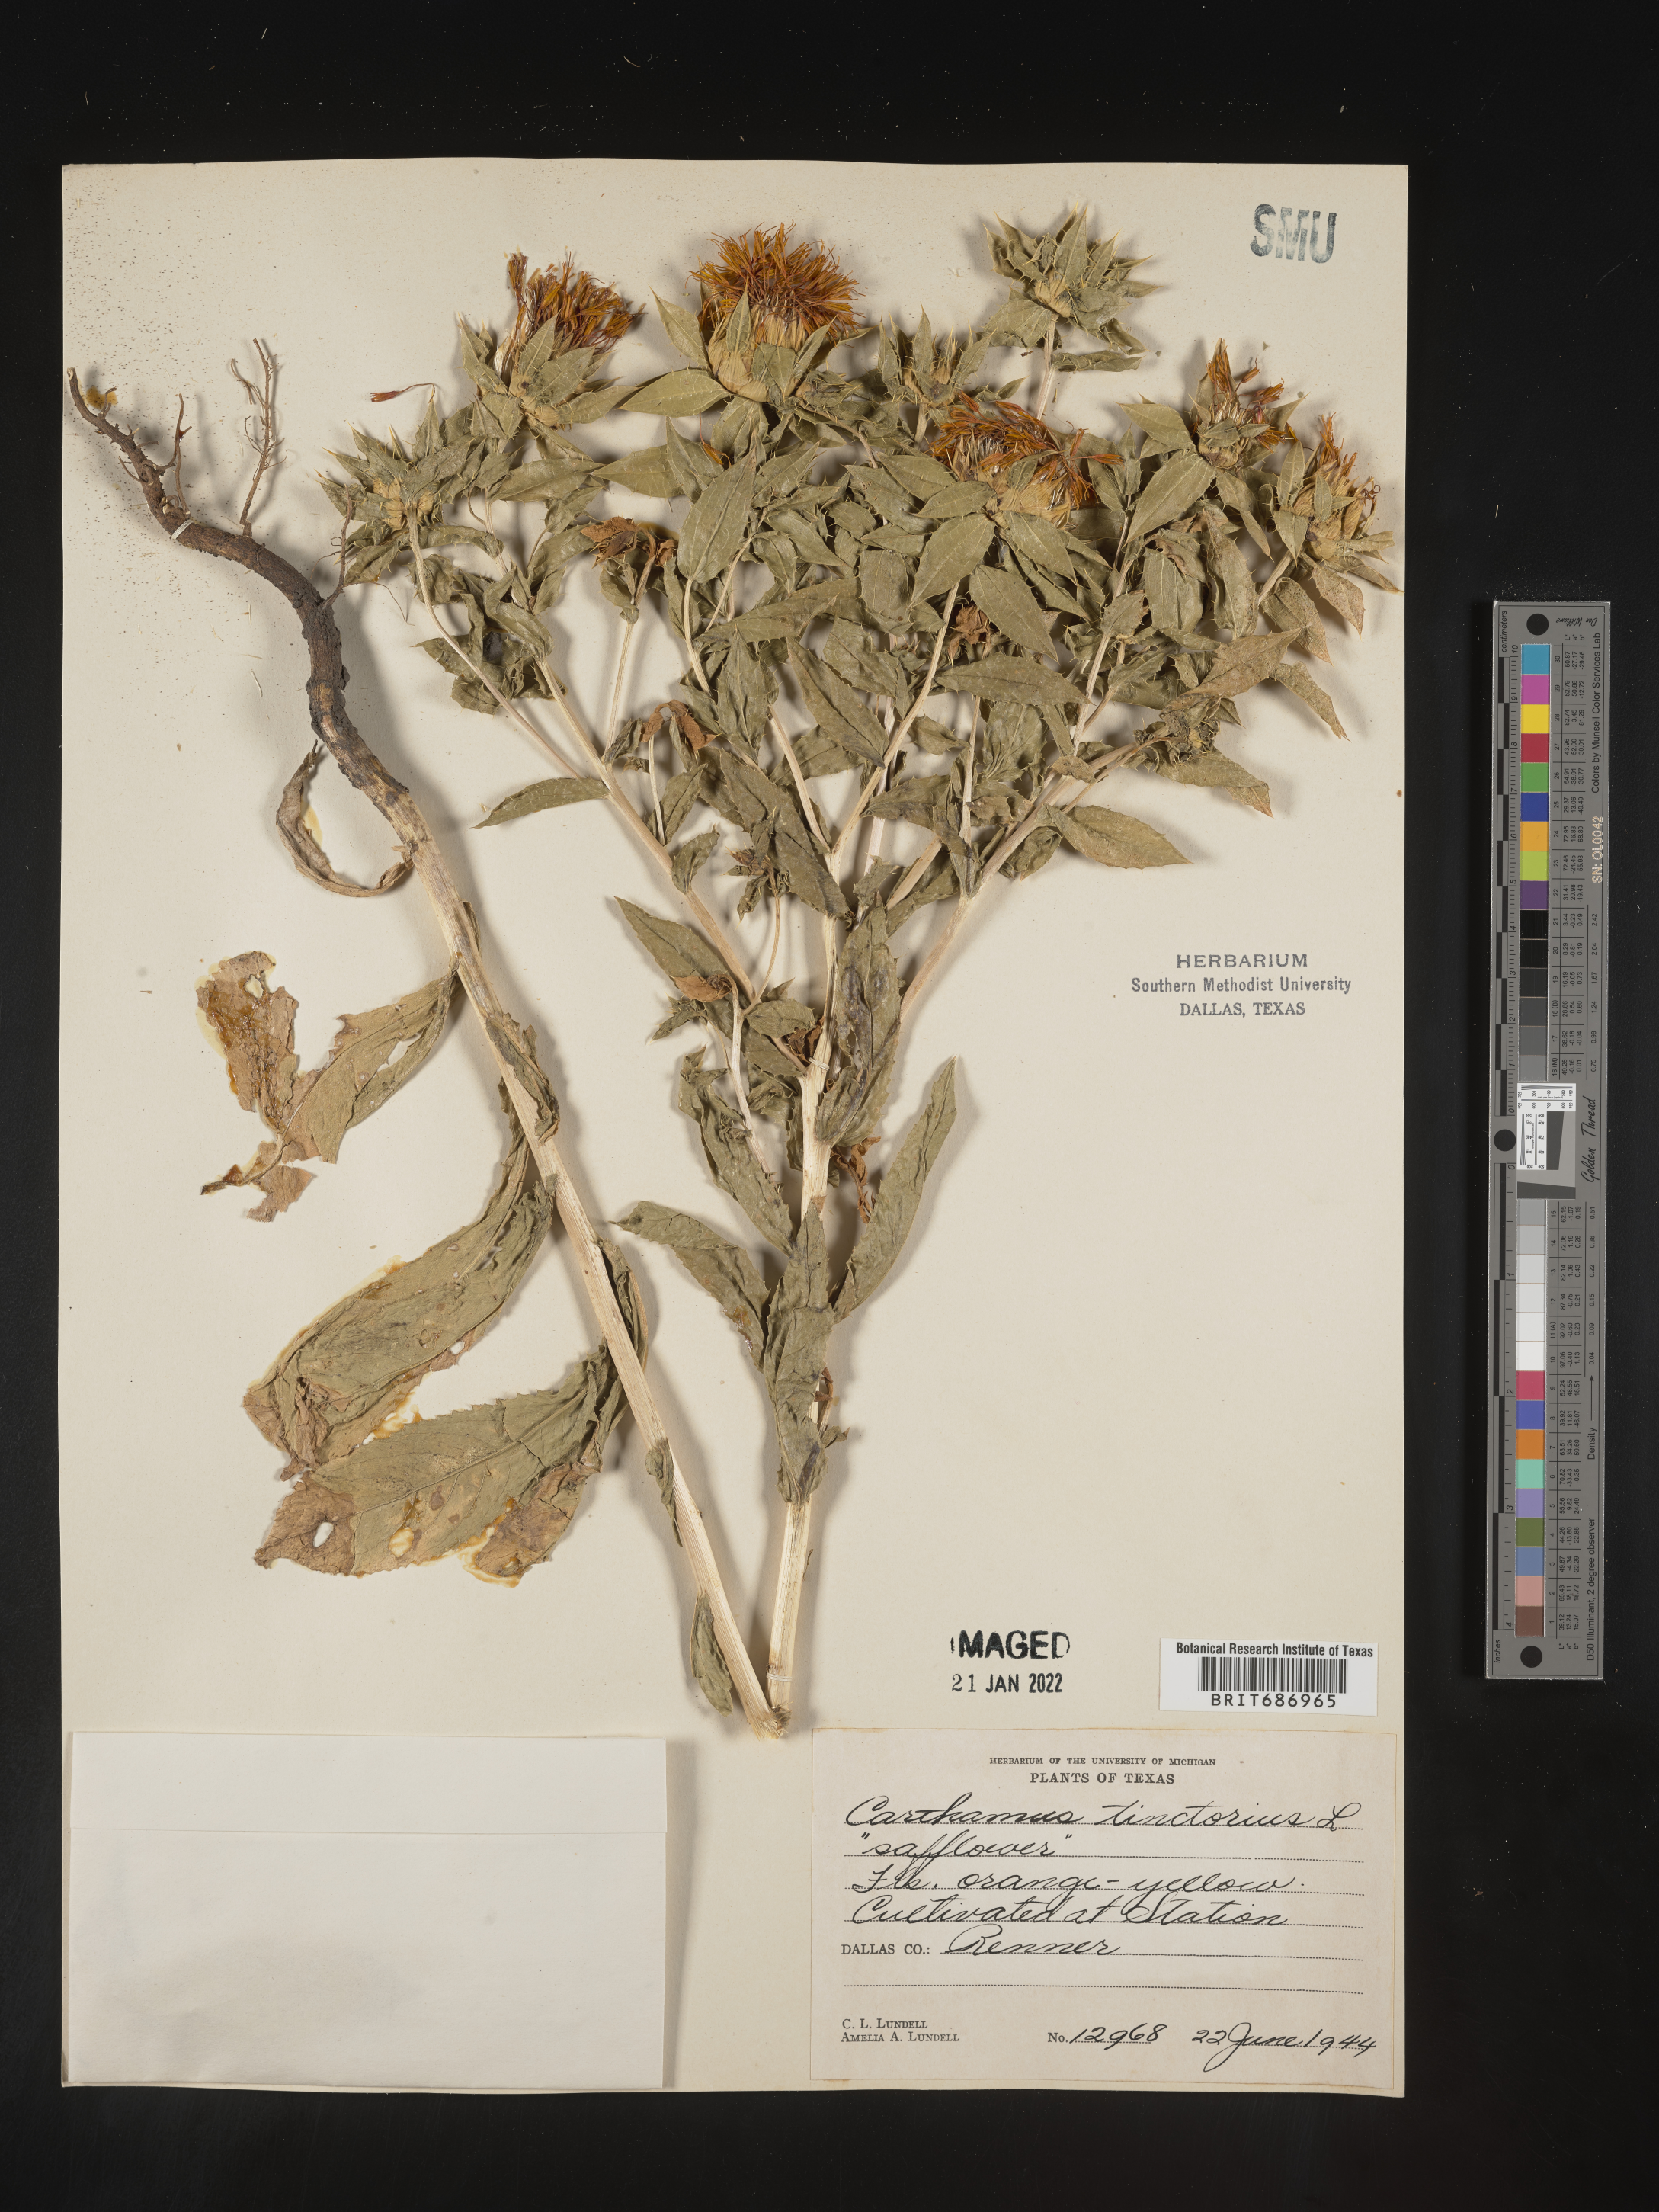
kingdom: Plantae
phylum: Tracheophyta
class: Magnoliopsida
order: Asterales
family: Asteraceae
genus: Carthamus
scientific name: Carthamus
